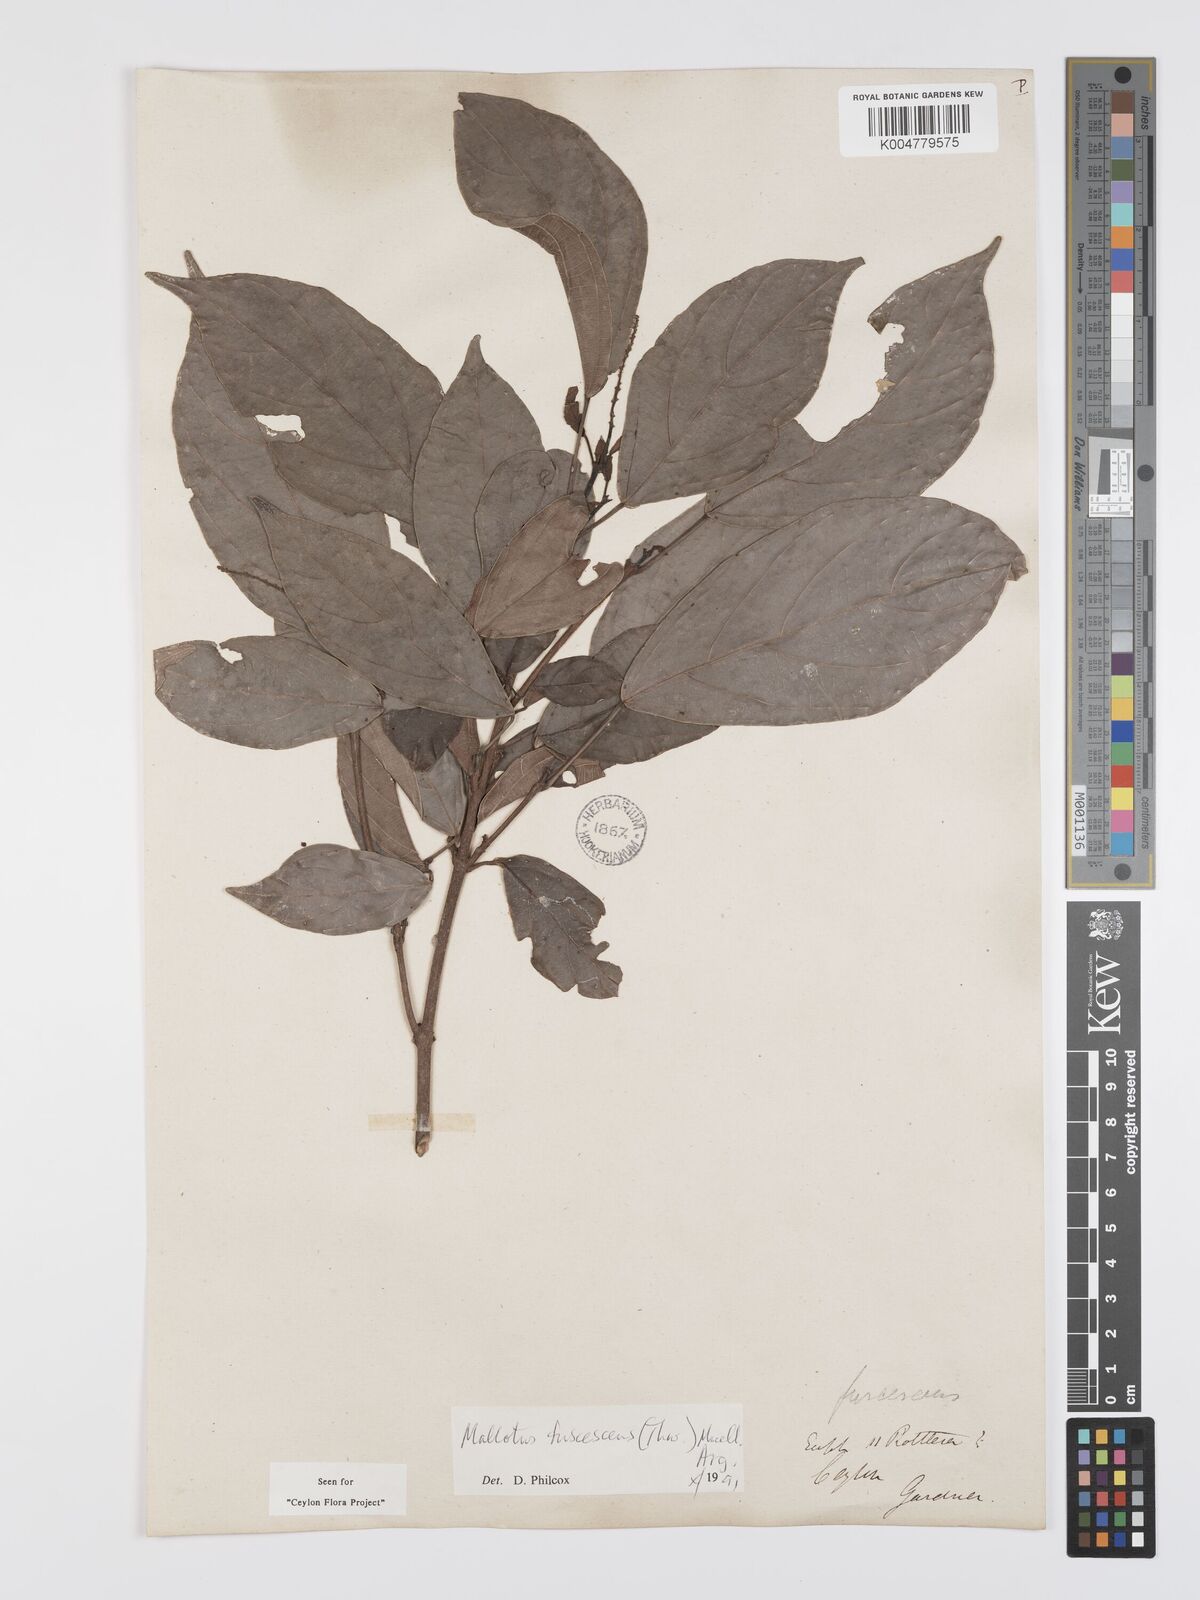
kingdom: Plantae
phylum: Tracheophyta
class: Magnoliopsida
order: Malpighiales
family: Euphorbiaceae
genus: Mallotus
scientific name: Mallotus fuscescens
